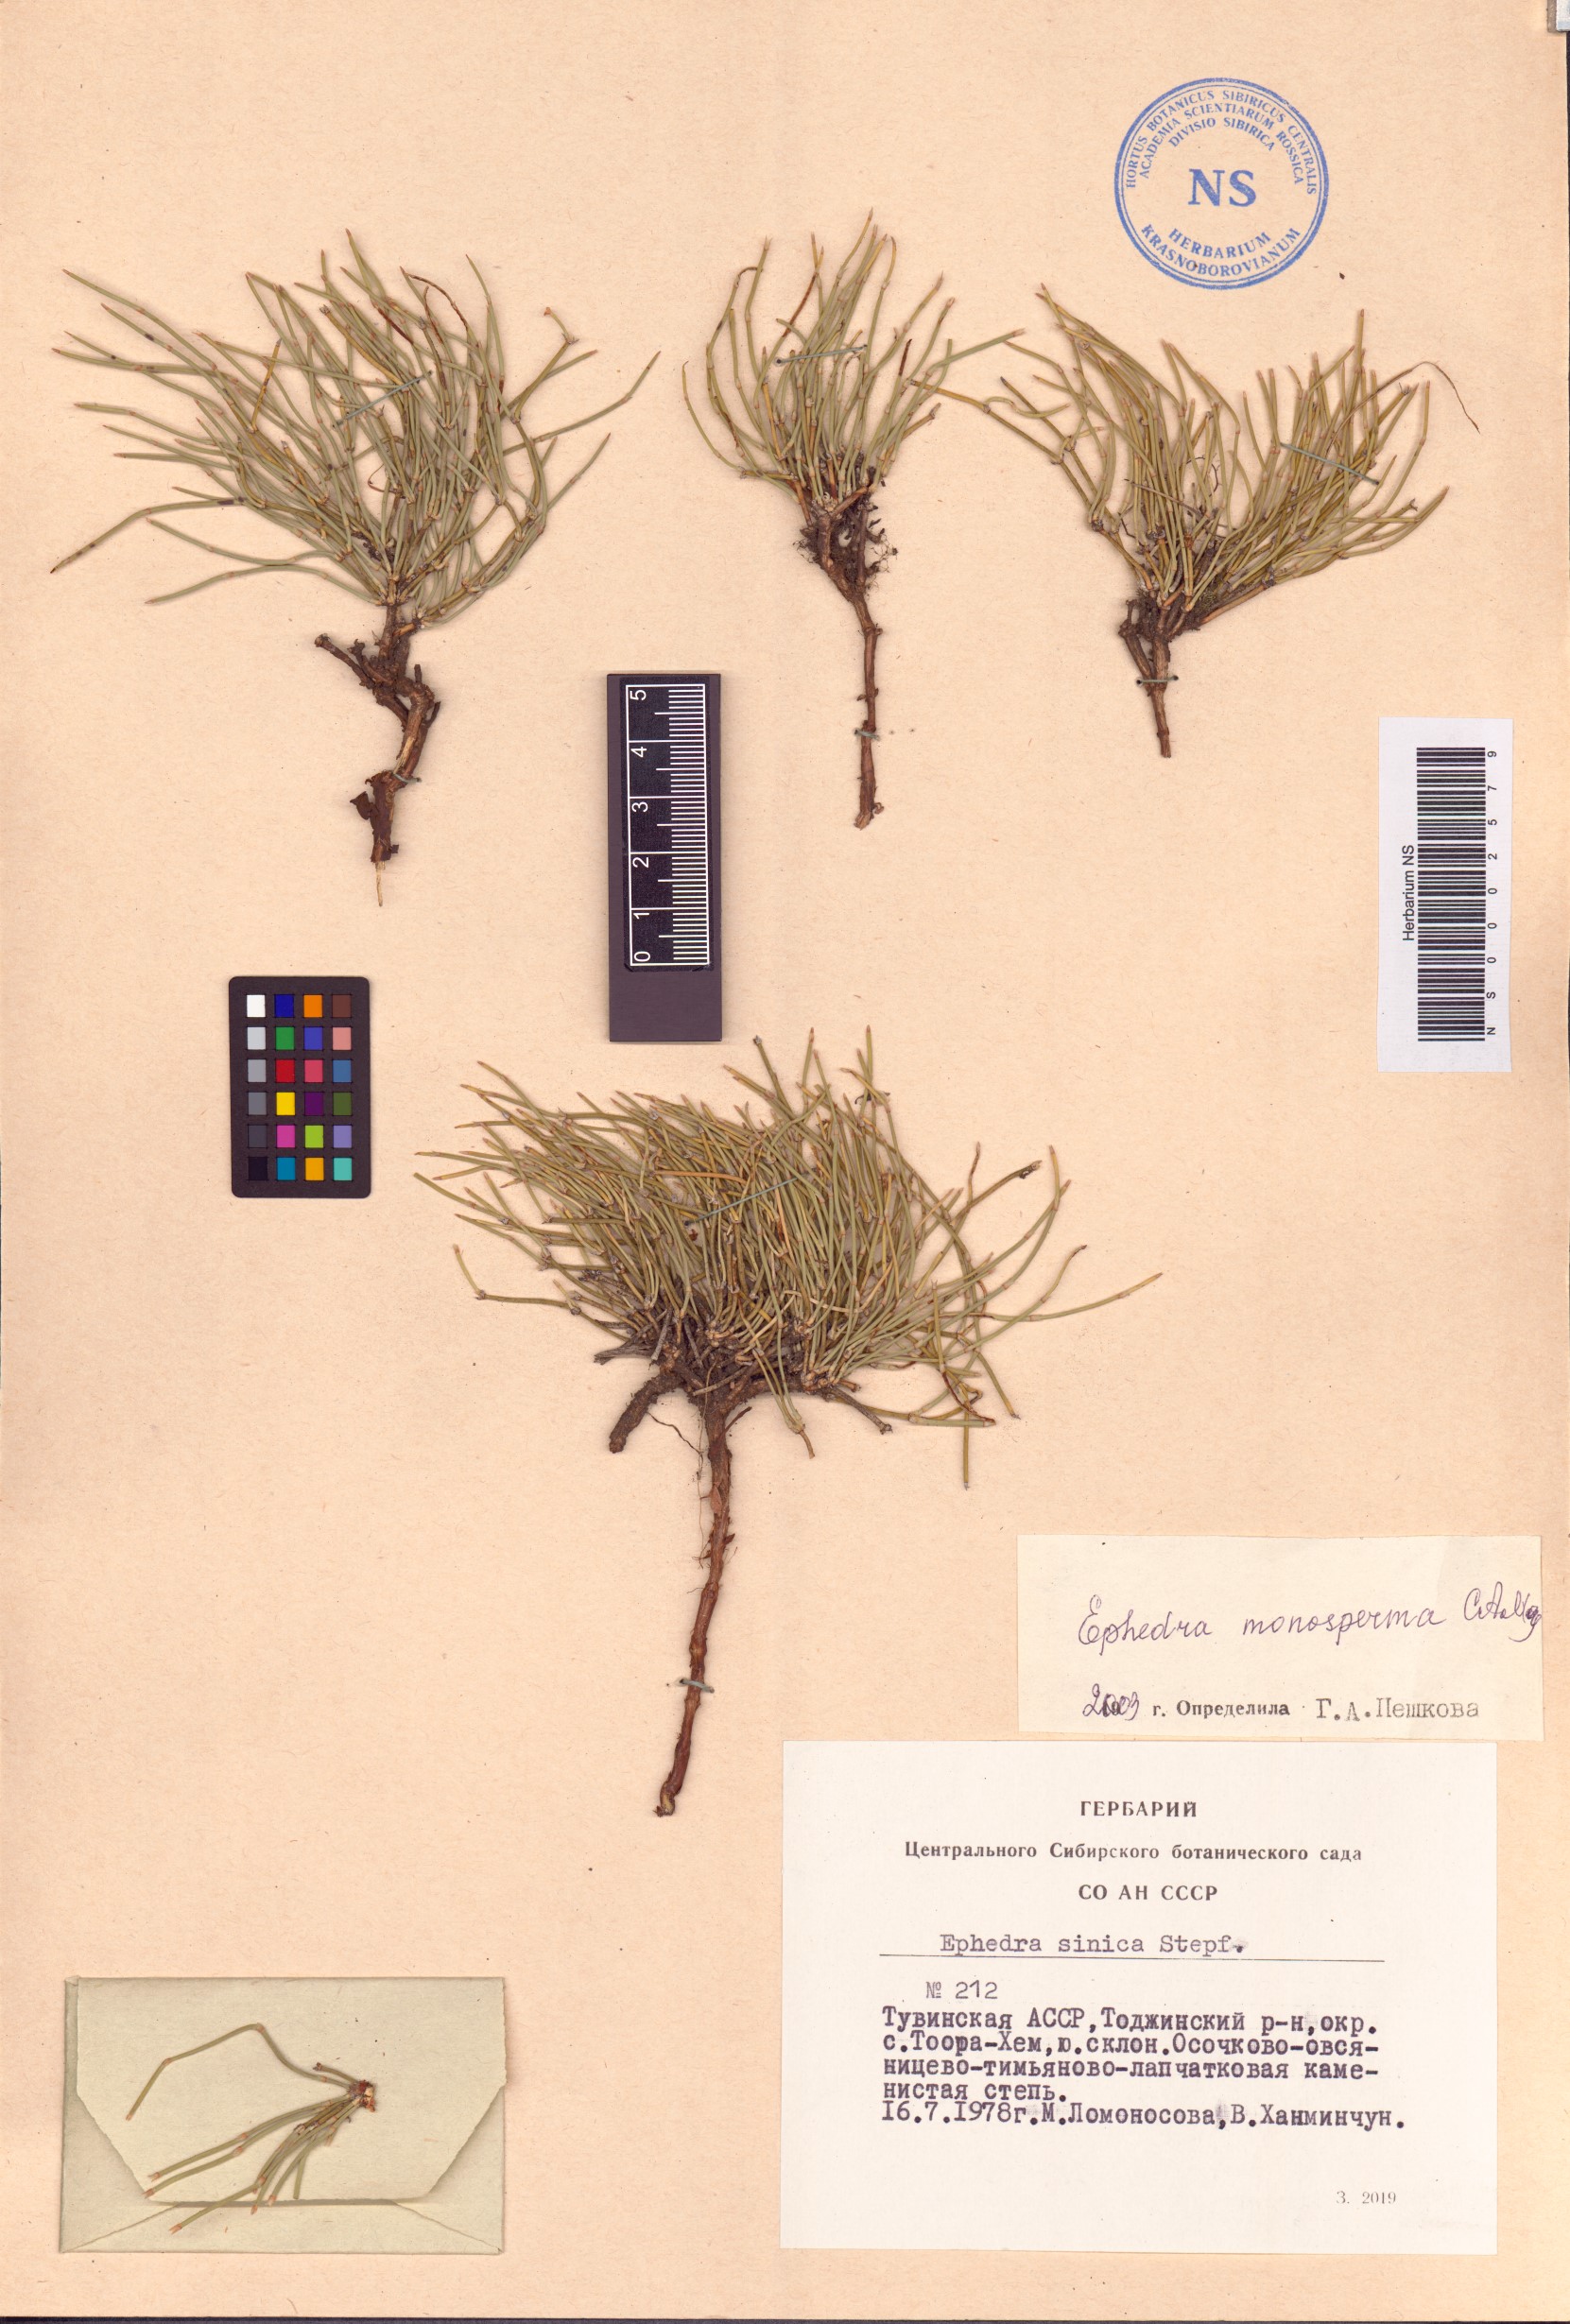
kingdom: Plantae
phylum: Tracheophyta
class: Gnetopsida
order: Ephedrales
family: Ephedraceae
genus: Ephedra
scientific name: Ephedra monosperma
